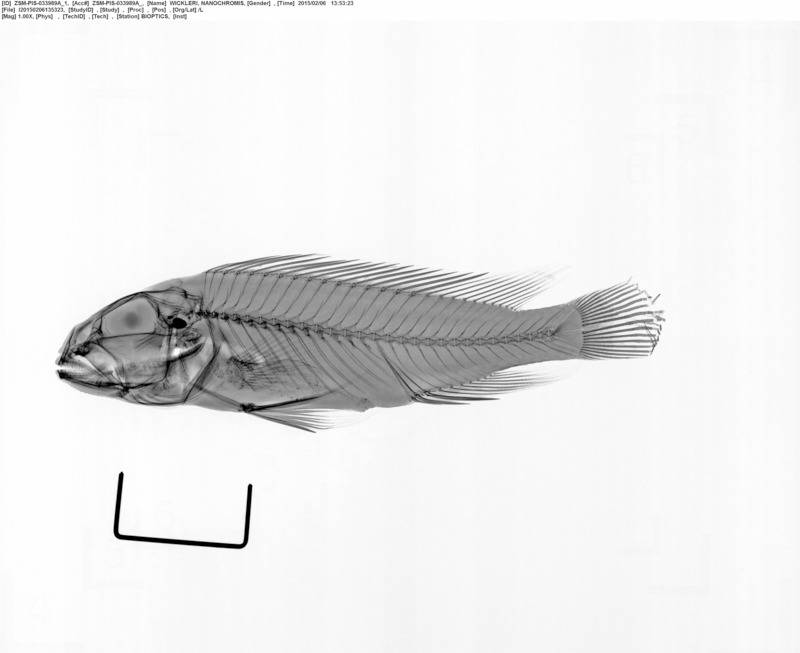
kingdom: Animalia
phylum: Chordata
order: Perciformes
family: Cichlidae
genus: Nanochromis
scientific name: Nanochromis wickleri
